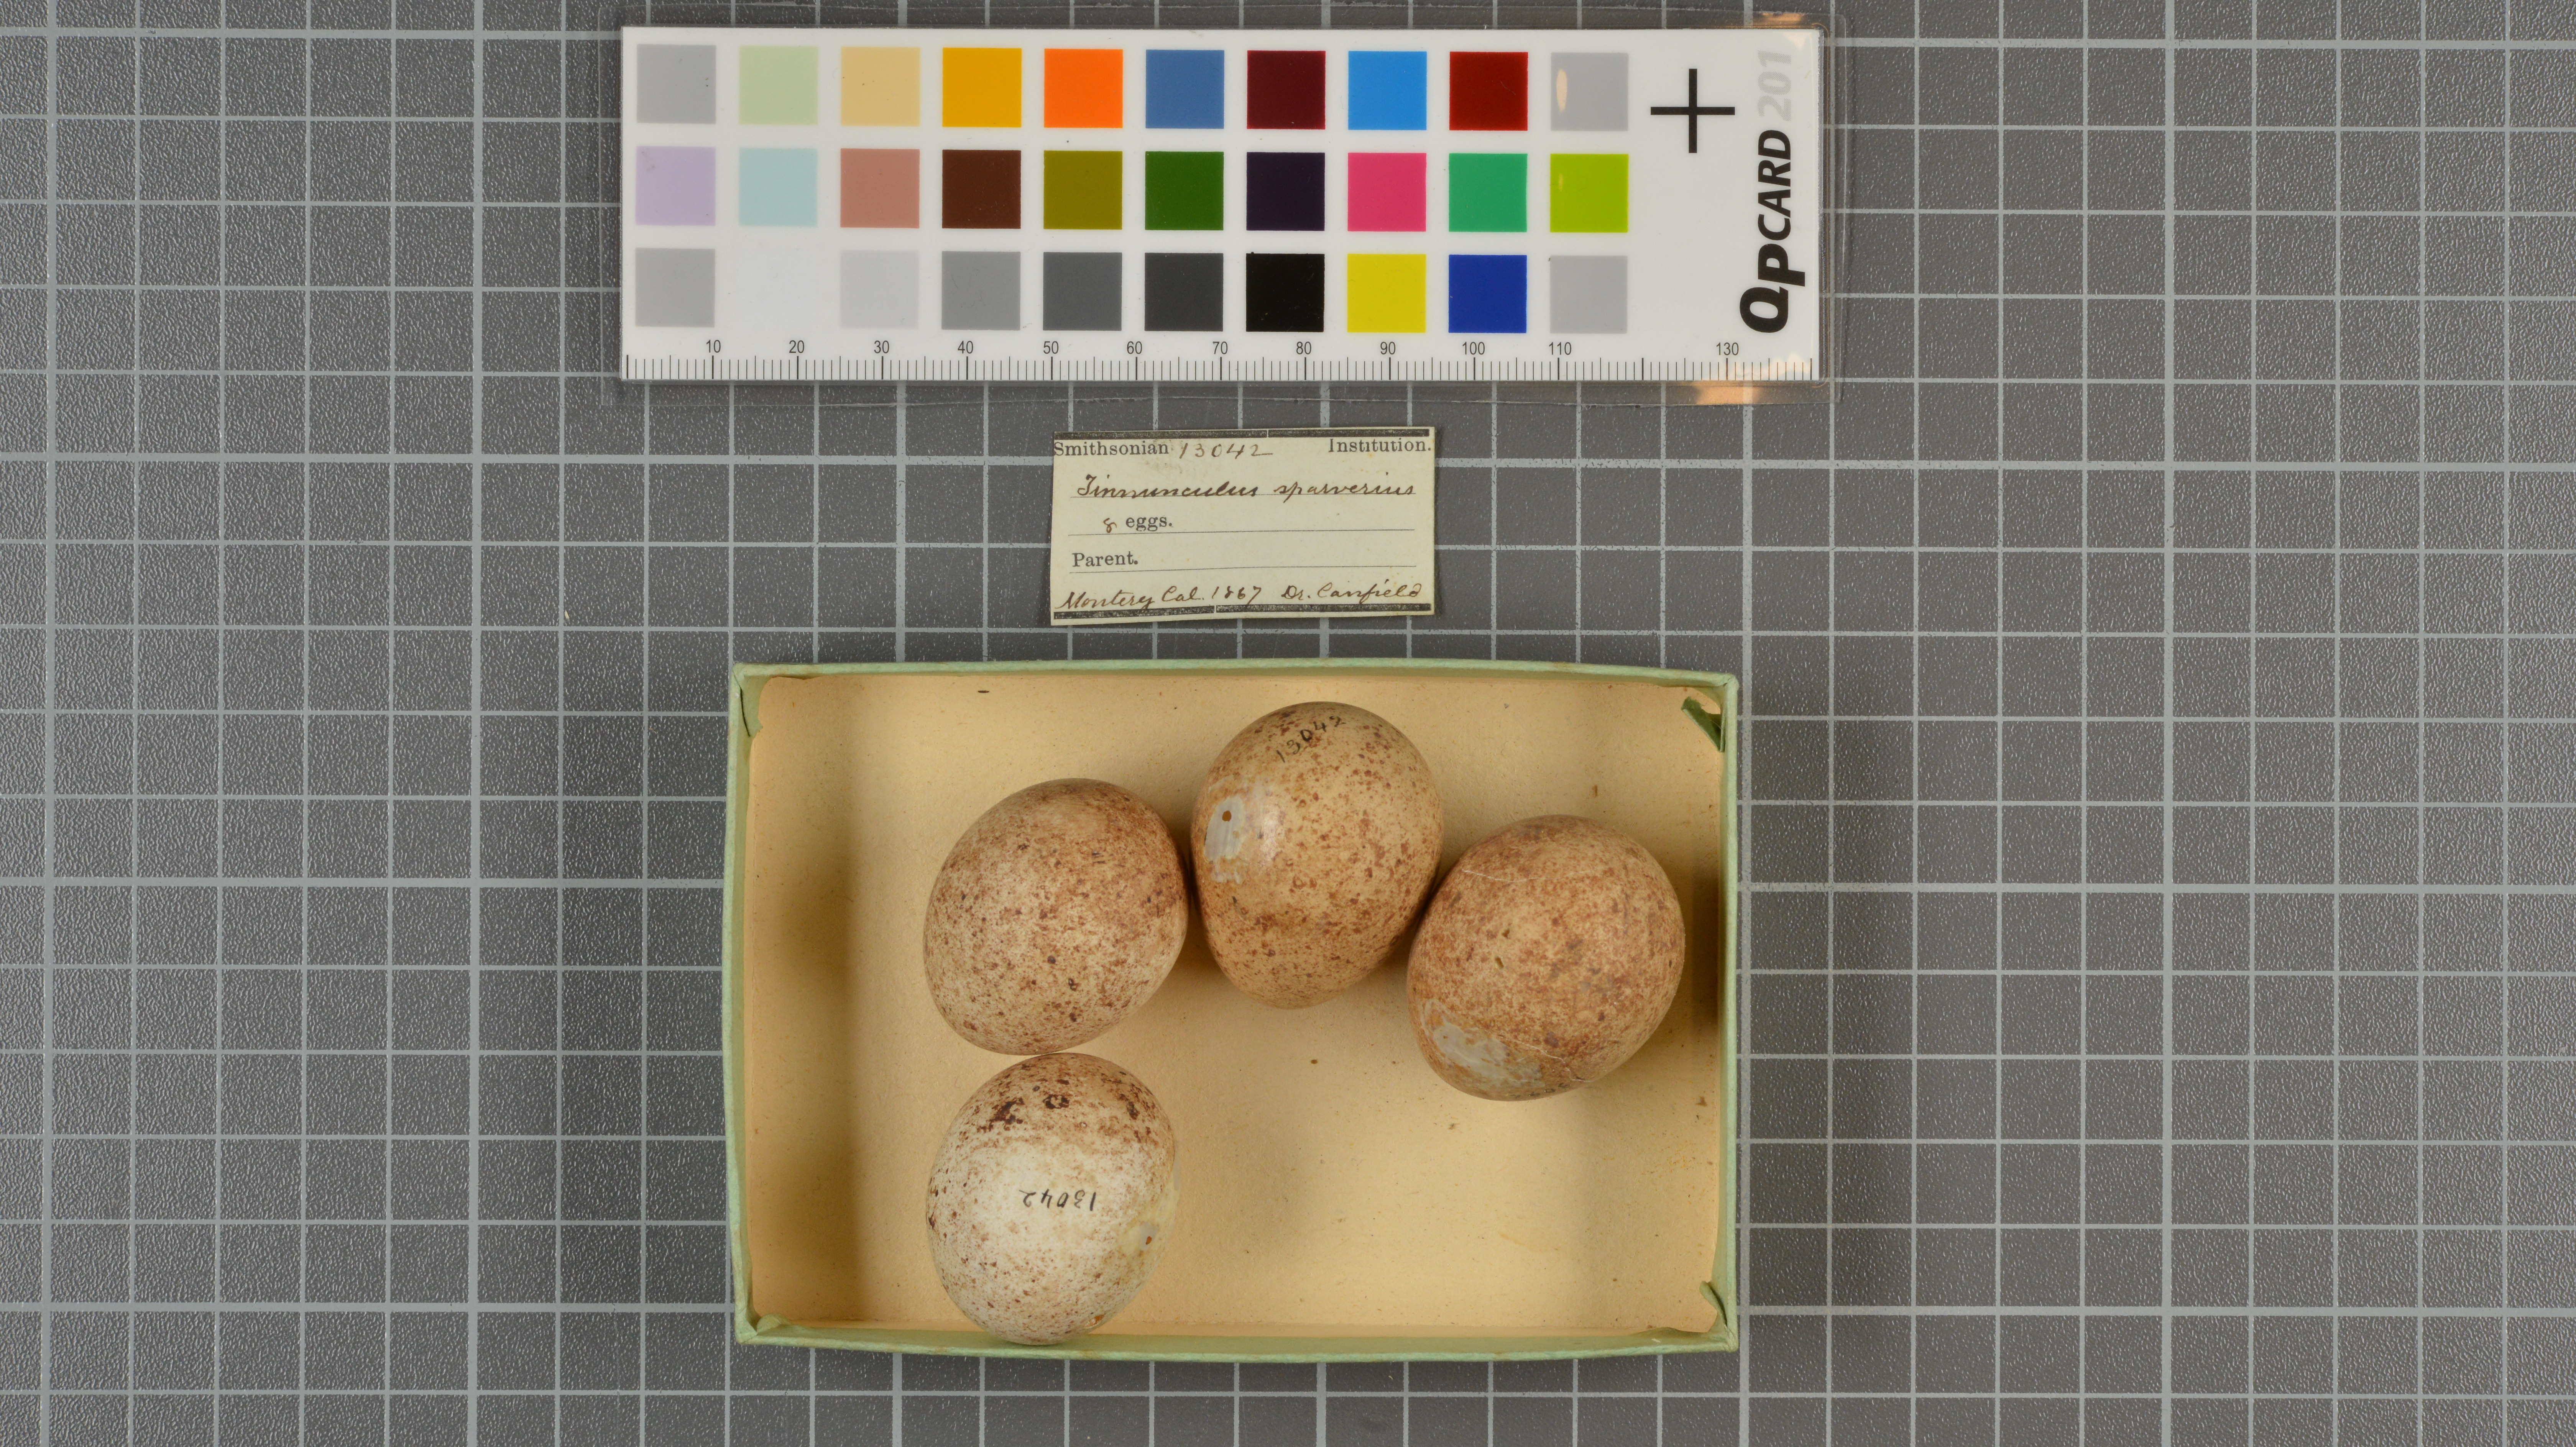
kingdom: Animalia
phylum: Chordata
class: Aves
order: Falconiformes
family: Falconidae
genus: Falco
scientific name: Falco sparverius
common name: American kestrel
